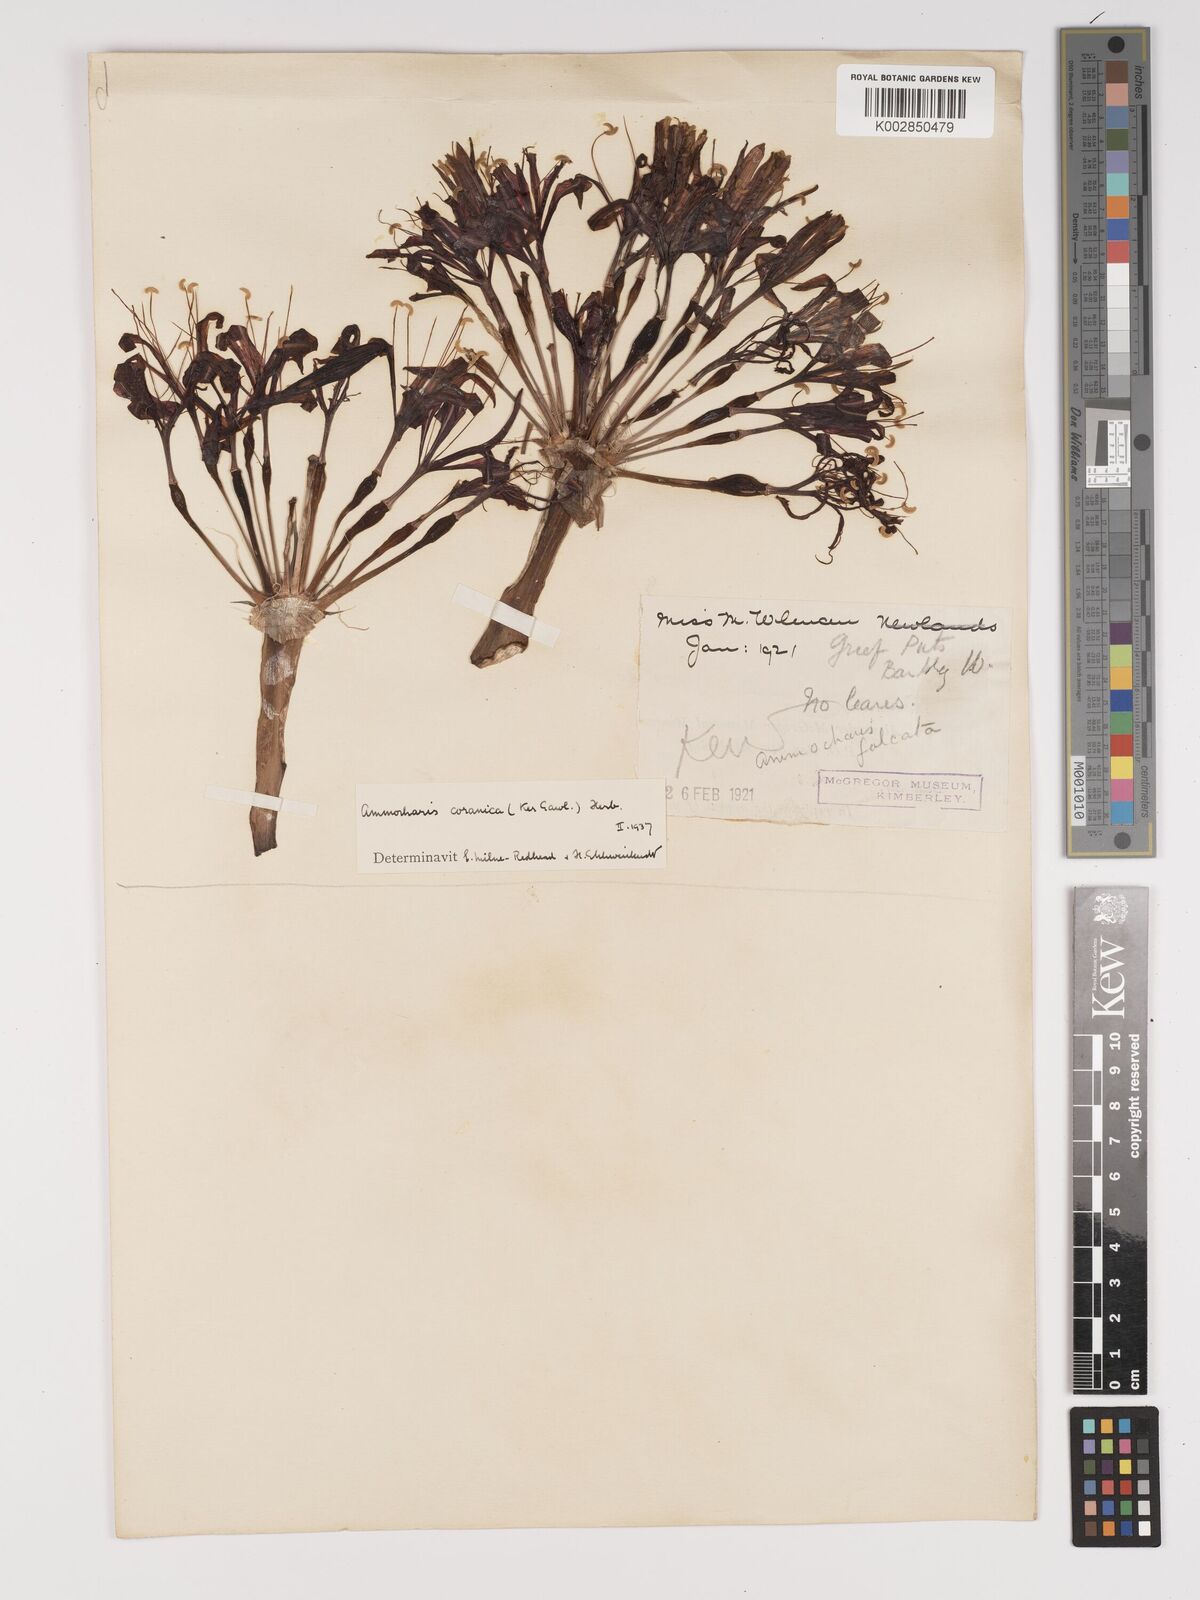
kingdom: Plantae
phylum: Tracheophyta
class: Liliopsida
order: Asparagales
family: Amaryllidaceae
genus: Ammocharis
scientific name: Ammocharis coranica
